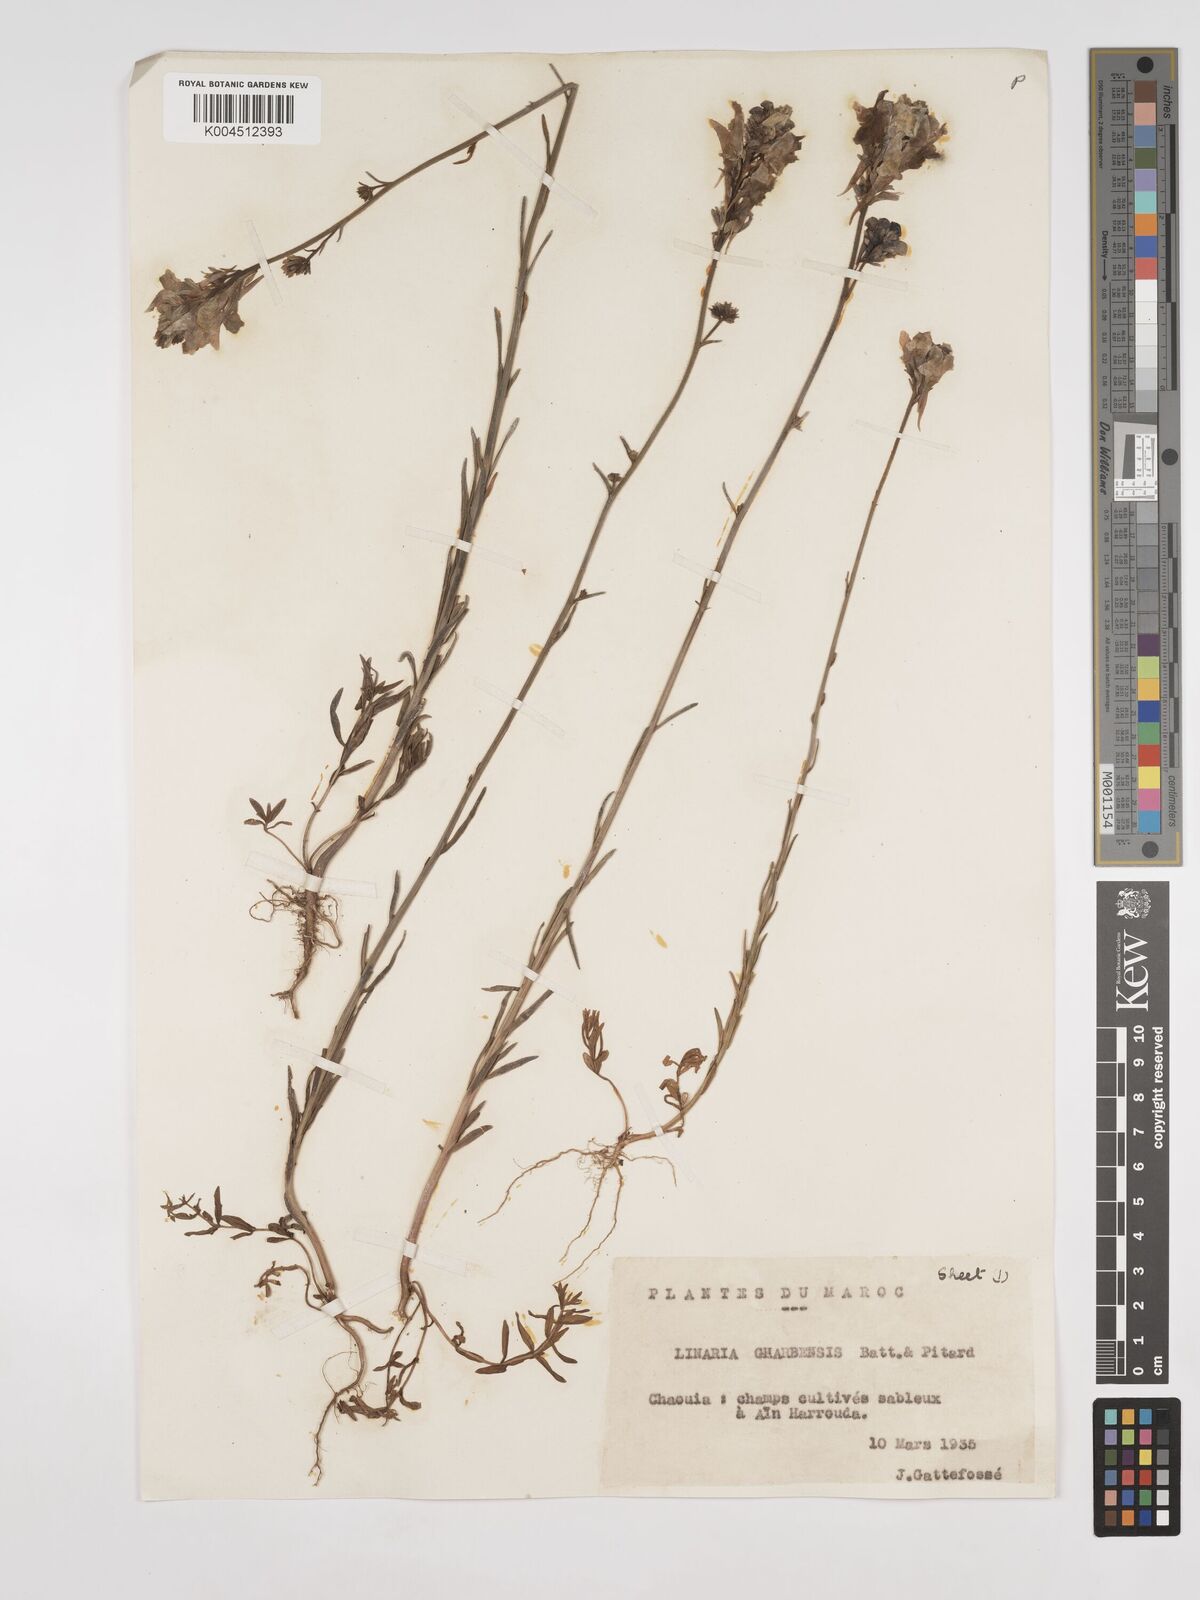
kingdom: Plantae
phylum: Tracheophyta
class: Magnoliopsida
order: Lamiales
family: Plantaginaceae
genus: Linaria
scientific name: Linaria gharbensis
